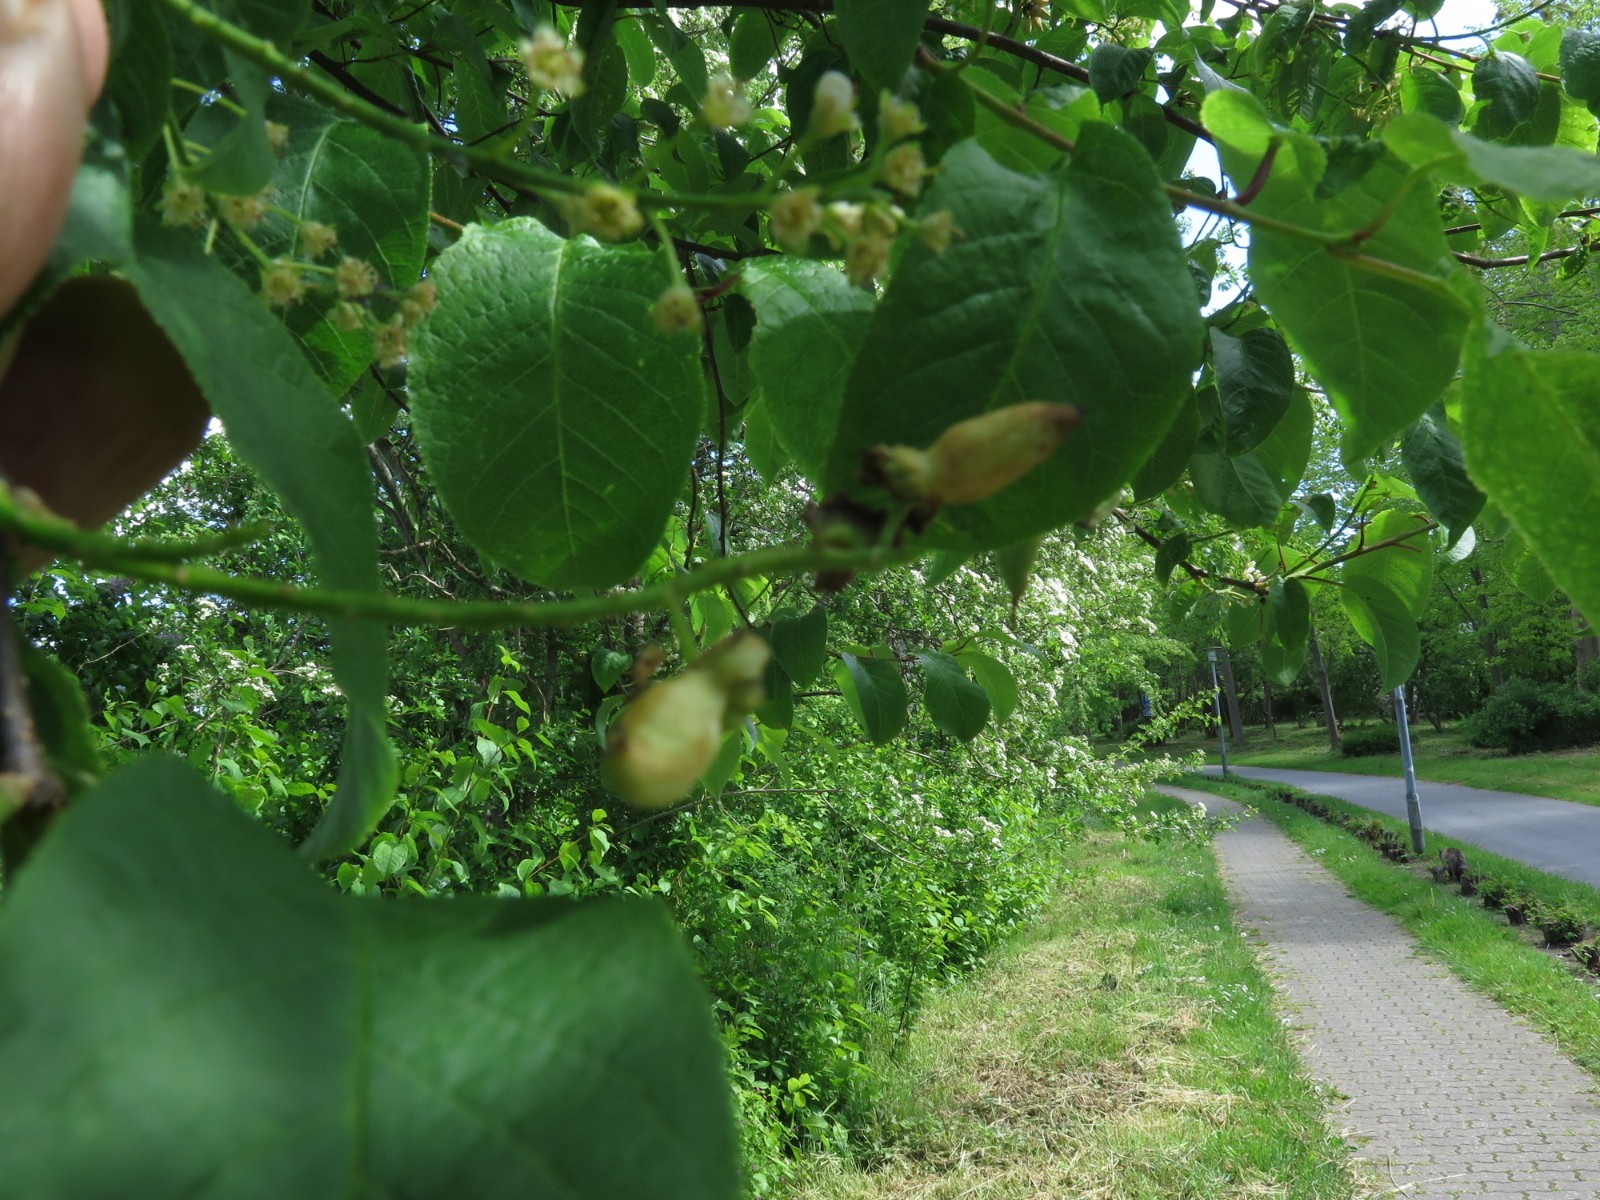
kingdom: Fungi
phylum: Ascomycota
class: Taphrinomycetes
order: Taphrinales
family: Taphrinaceae
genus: Taphrina
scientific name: Taphrina padi
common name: Bird cherry pocket
